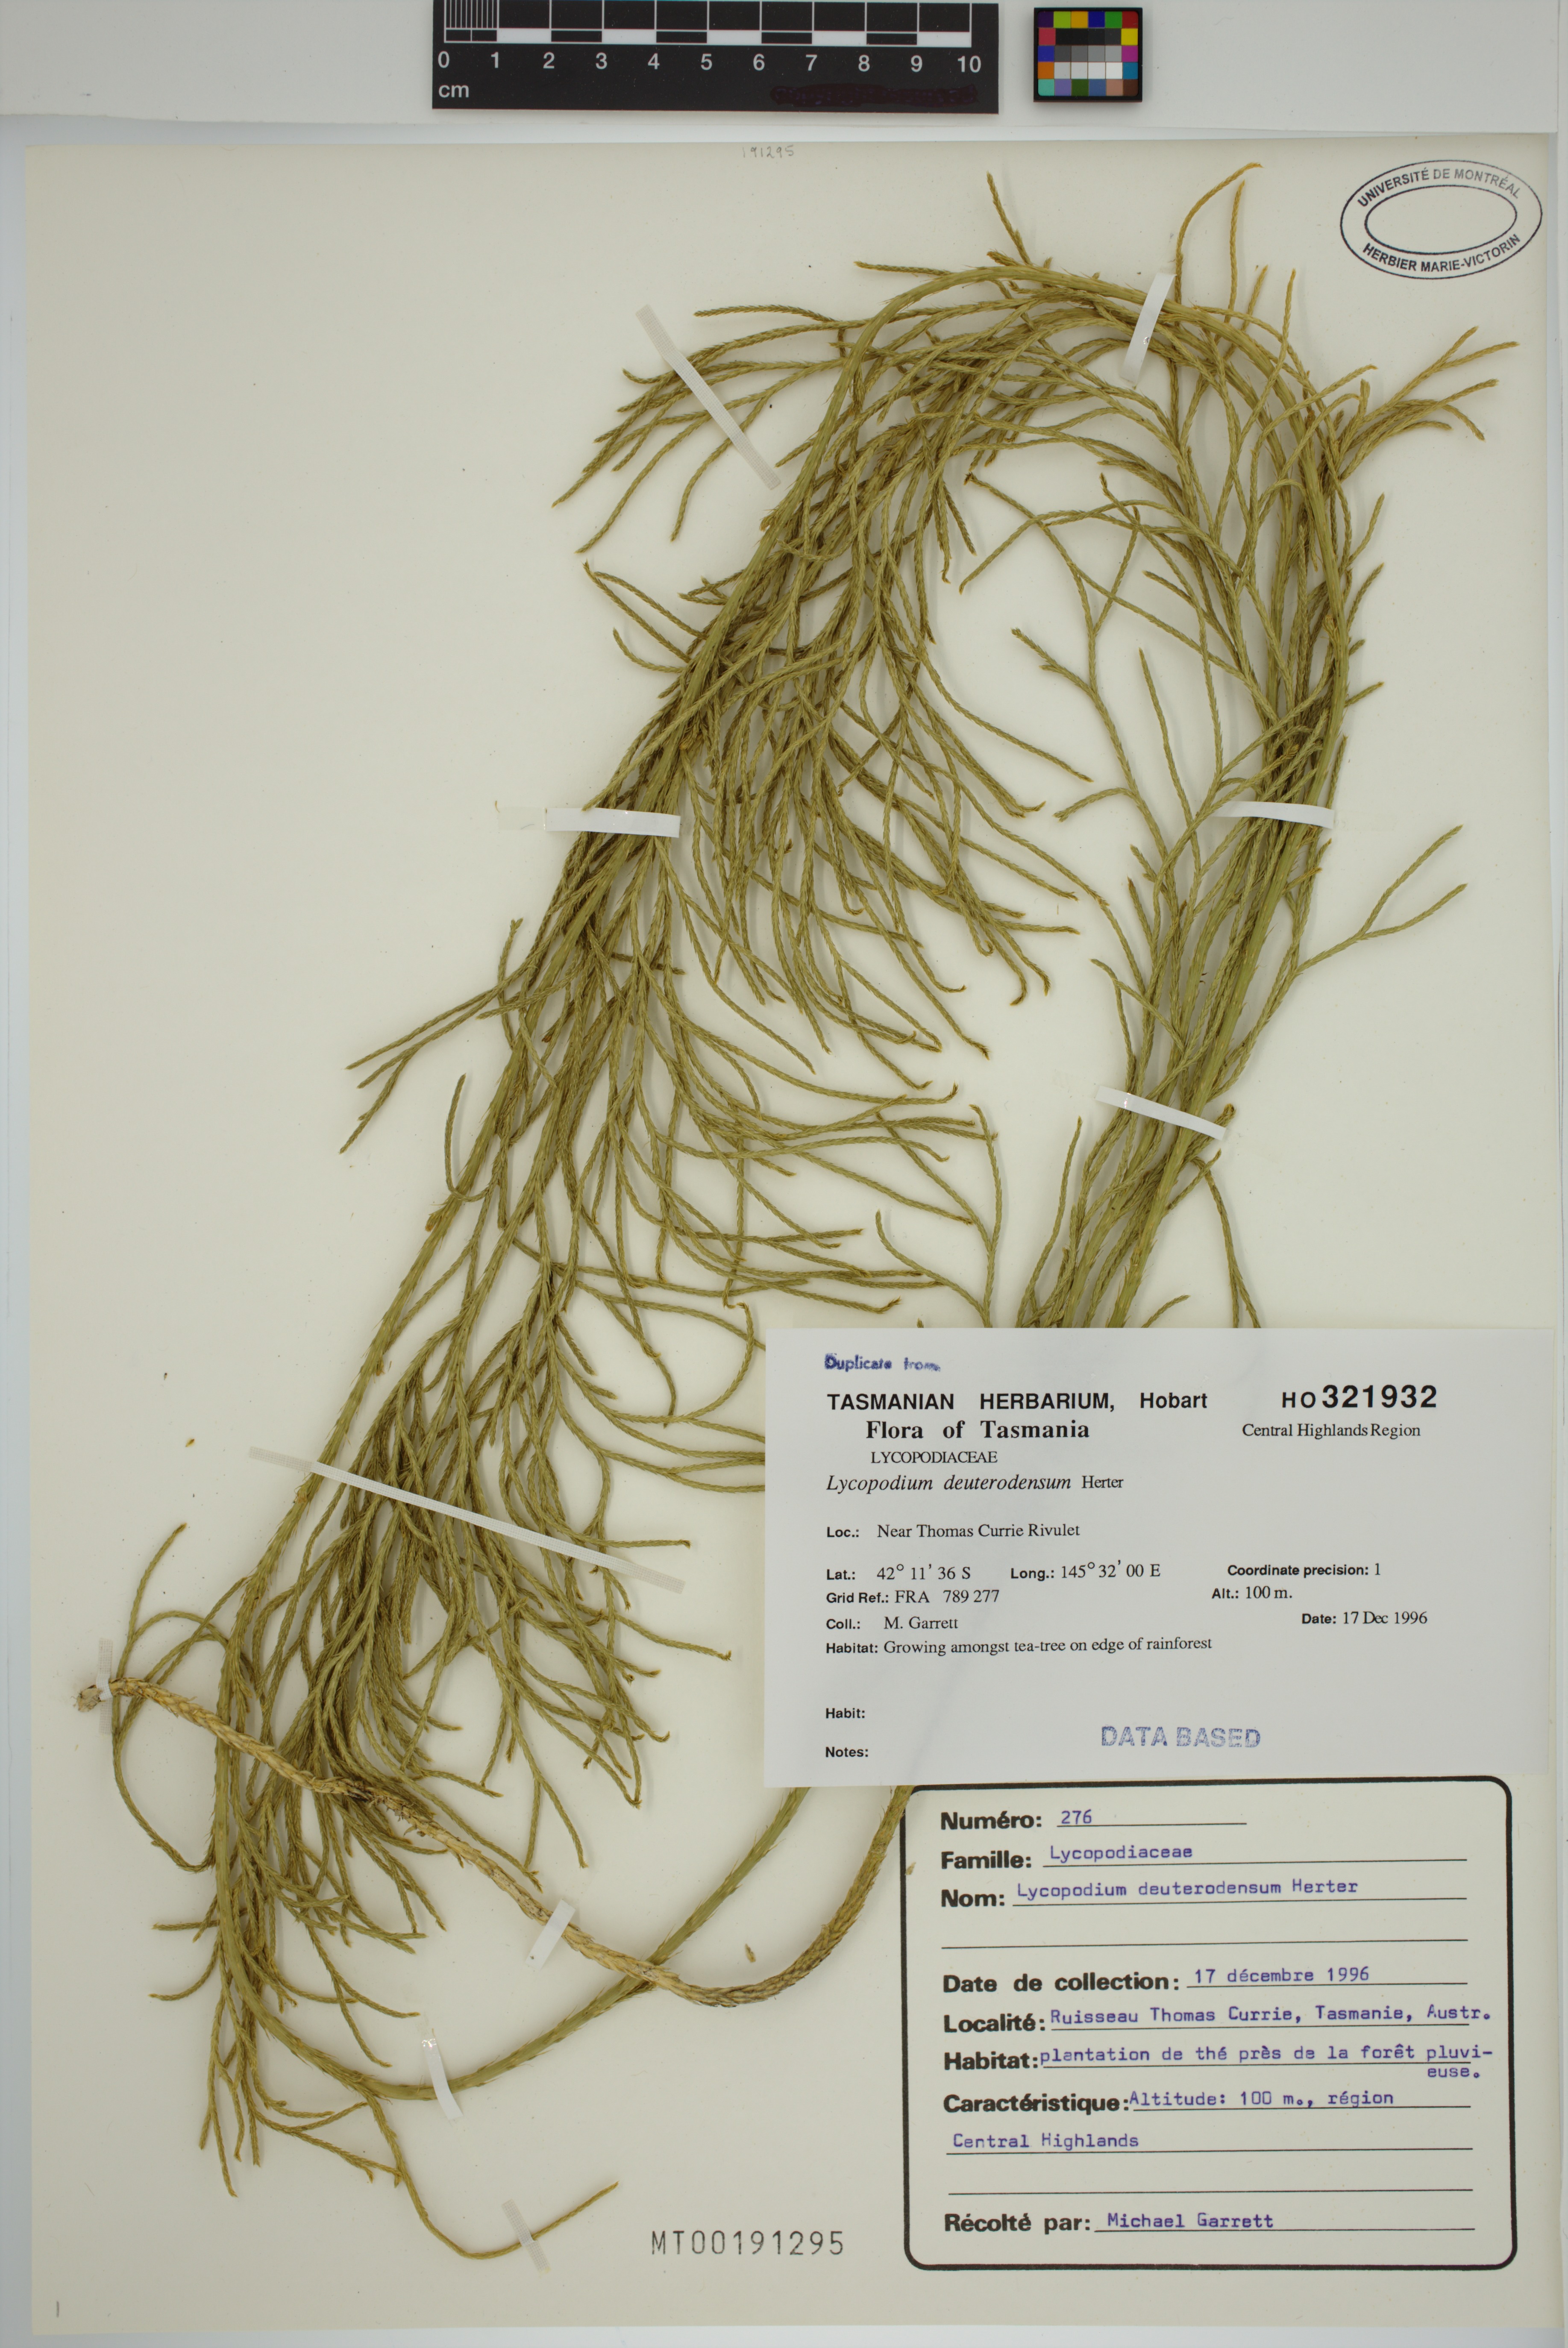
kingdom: Plantae
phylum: Tracheophyta
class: Lycopodiopsida
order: Lycopodiales
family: Lycopodiaceae
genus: Pseudolycopodium
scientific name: Pseudolycopodium densum
